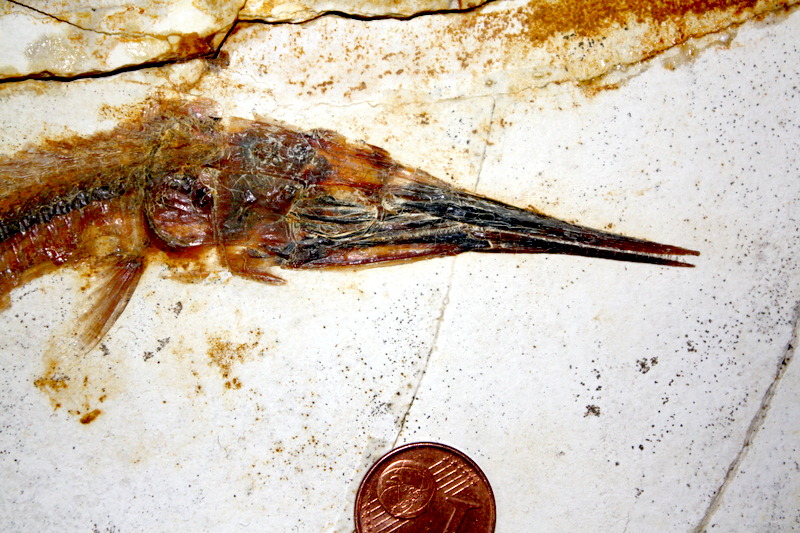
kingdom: Animalia
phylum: Chordata
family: Aspidorhynchidae
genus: Belonostomus
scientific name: Belonostomus kochii
